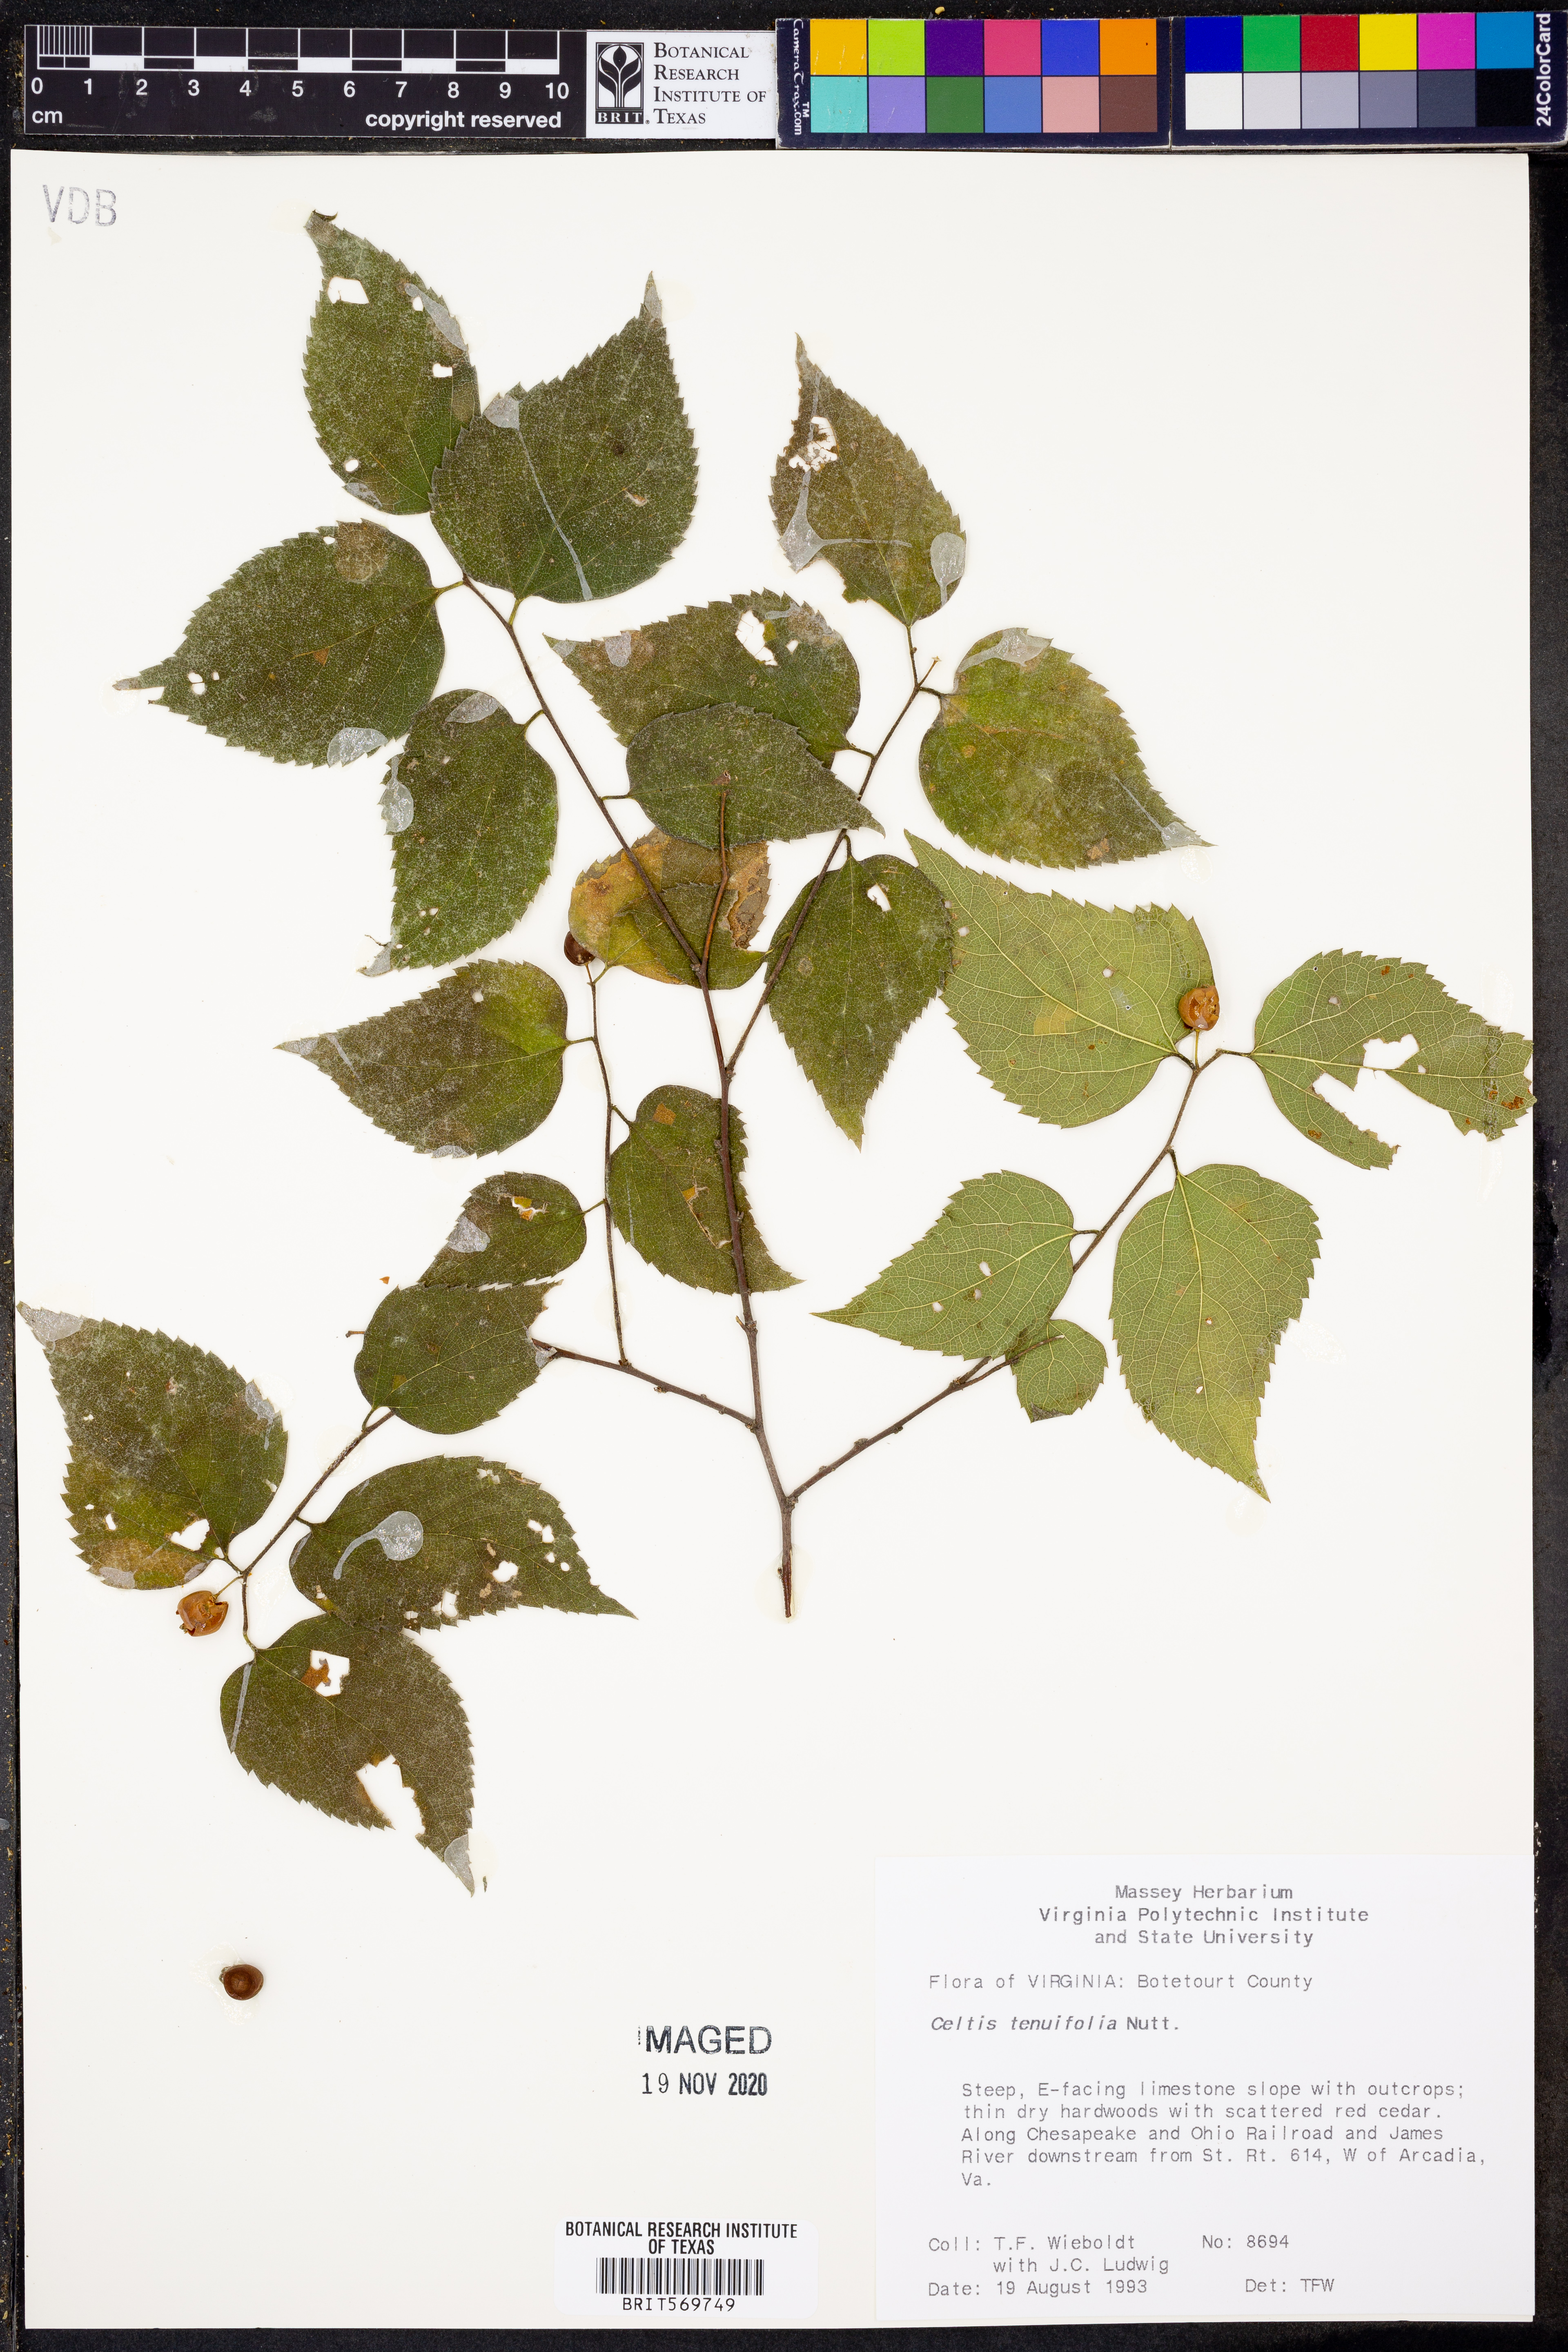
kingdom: Plantae
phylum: Tracheophyta
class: Magnoliopsida
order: Rosales
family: Cannabaceae
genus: Celtis
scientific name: Celtis tenuifolia
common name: Georgia hackberry
